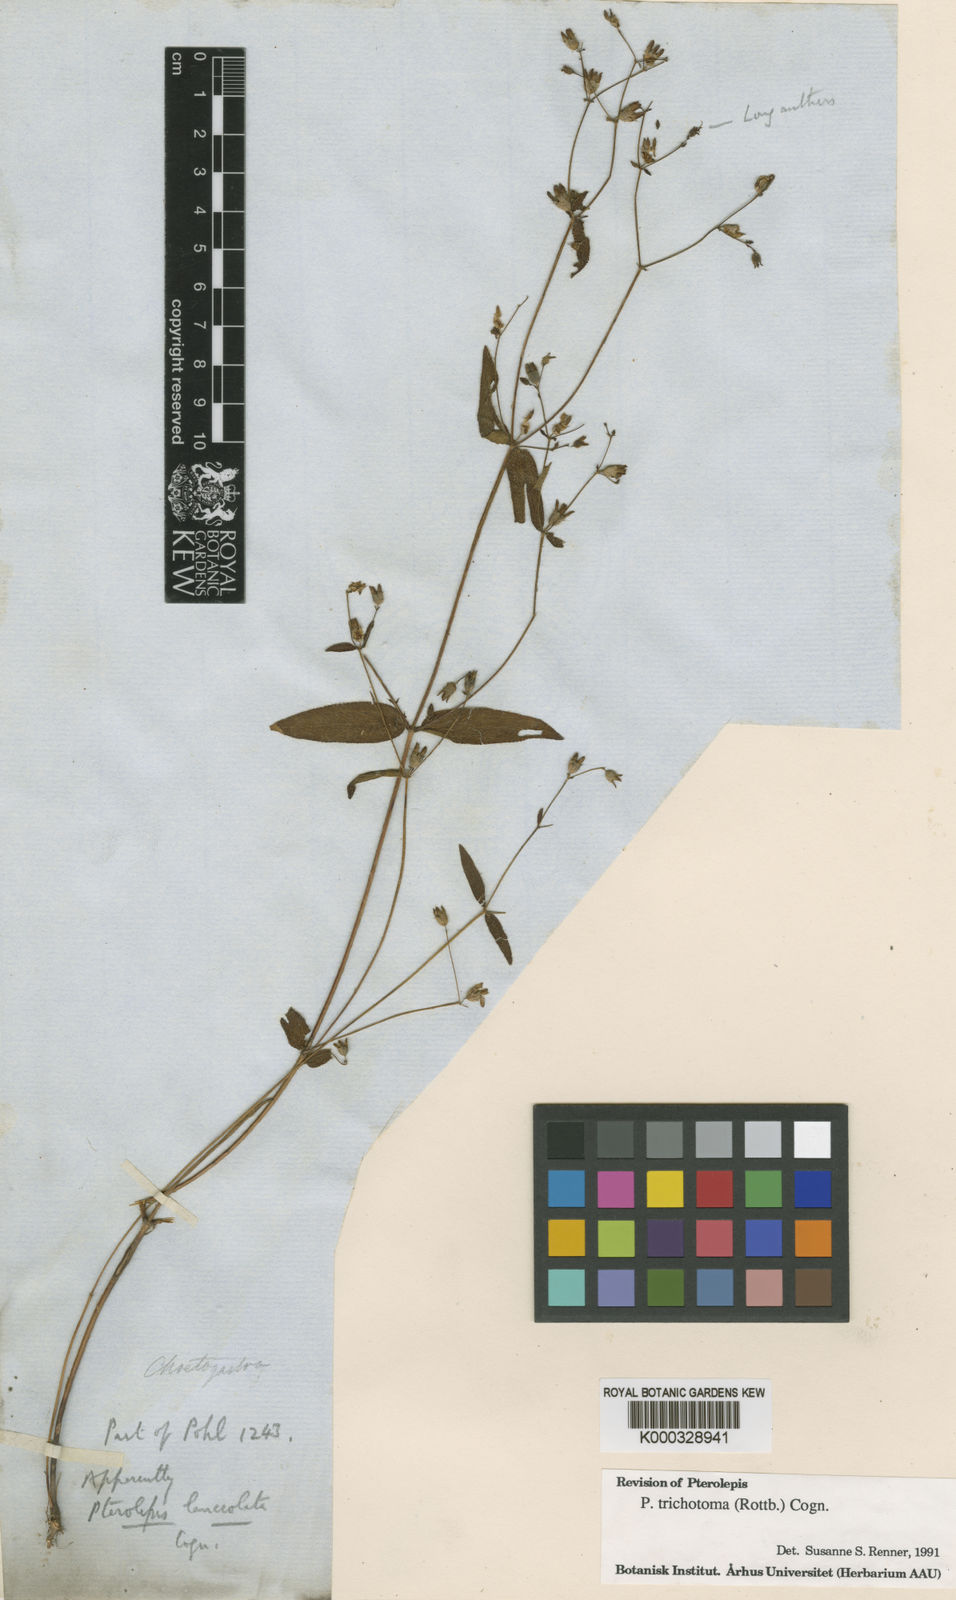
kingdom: Plantae
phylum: Tracheophyta
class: Magnoliopsida
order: Myrtales
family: Melastomataceae
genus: Pterolepis
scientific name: Pterolepis trichotoma
